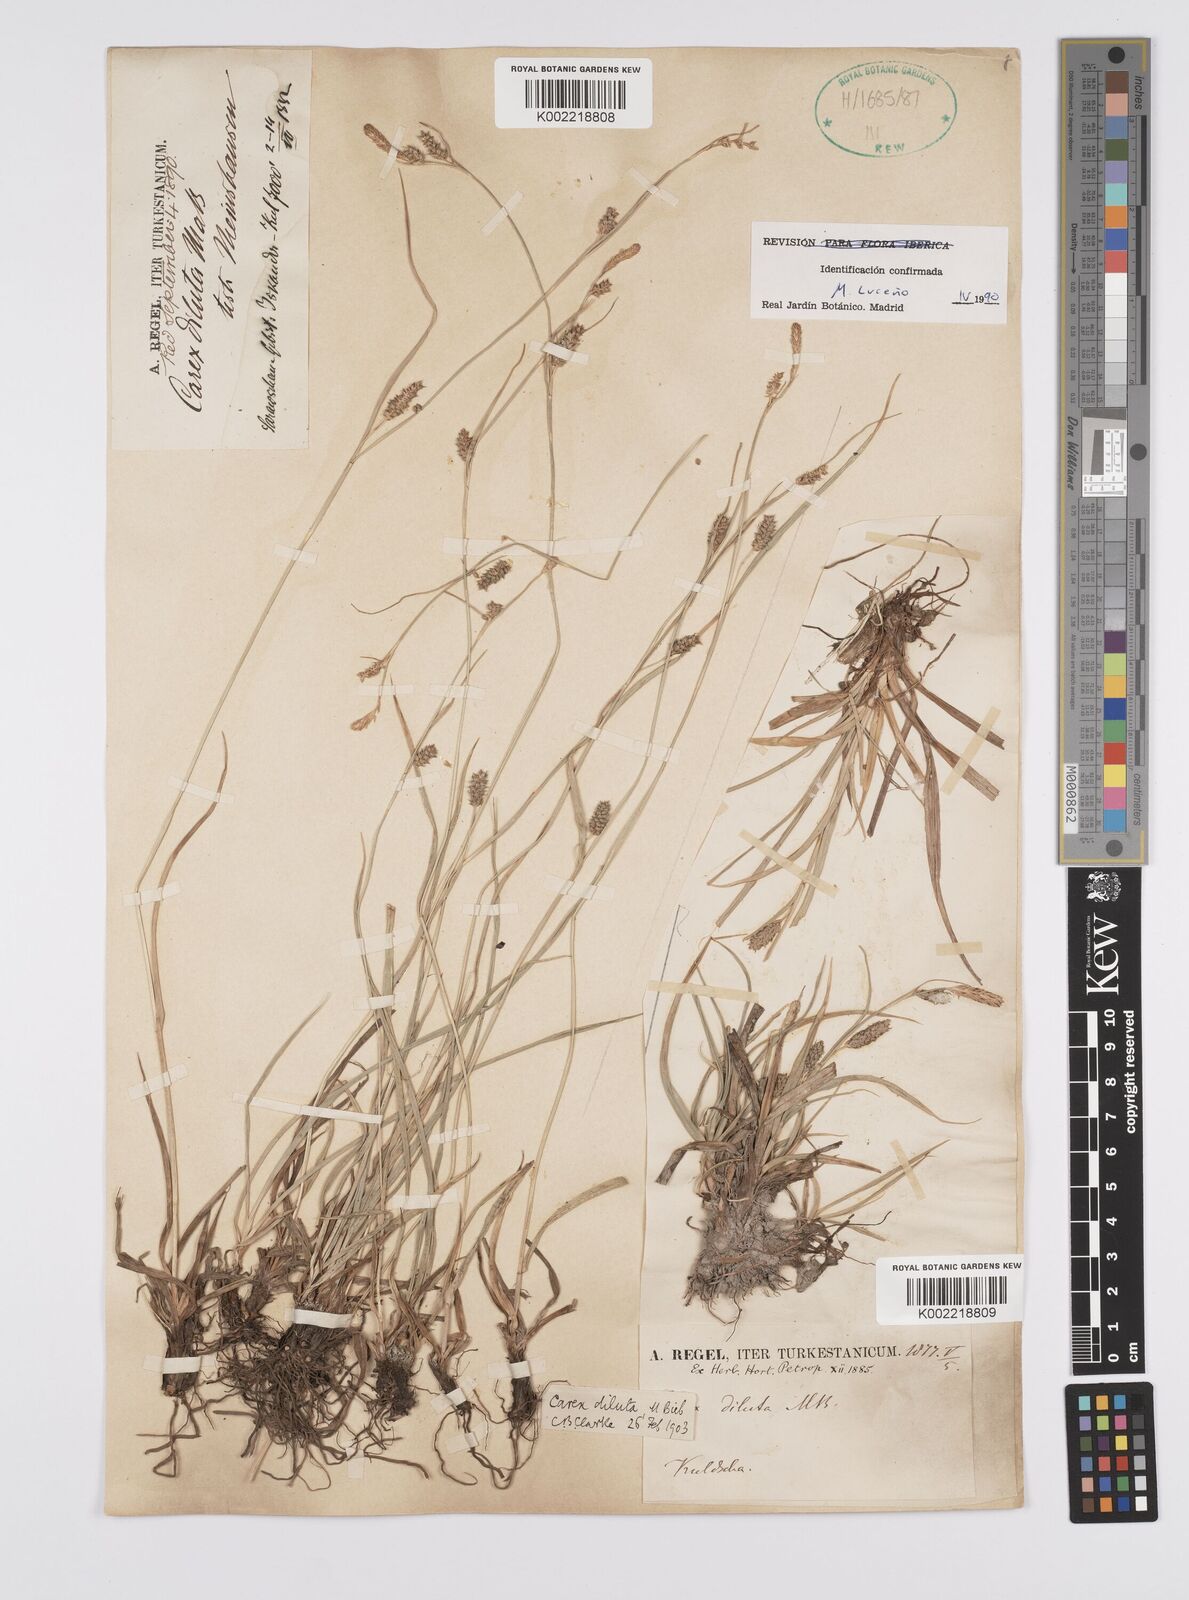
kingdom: Plantae
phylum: Tracheophyta
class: Liliopsida
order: Poales
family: Cyperaceae
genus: Carex
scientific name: Carex diluta
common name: Sedge
